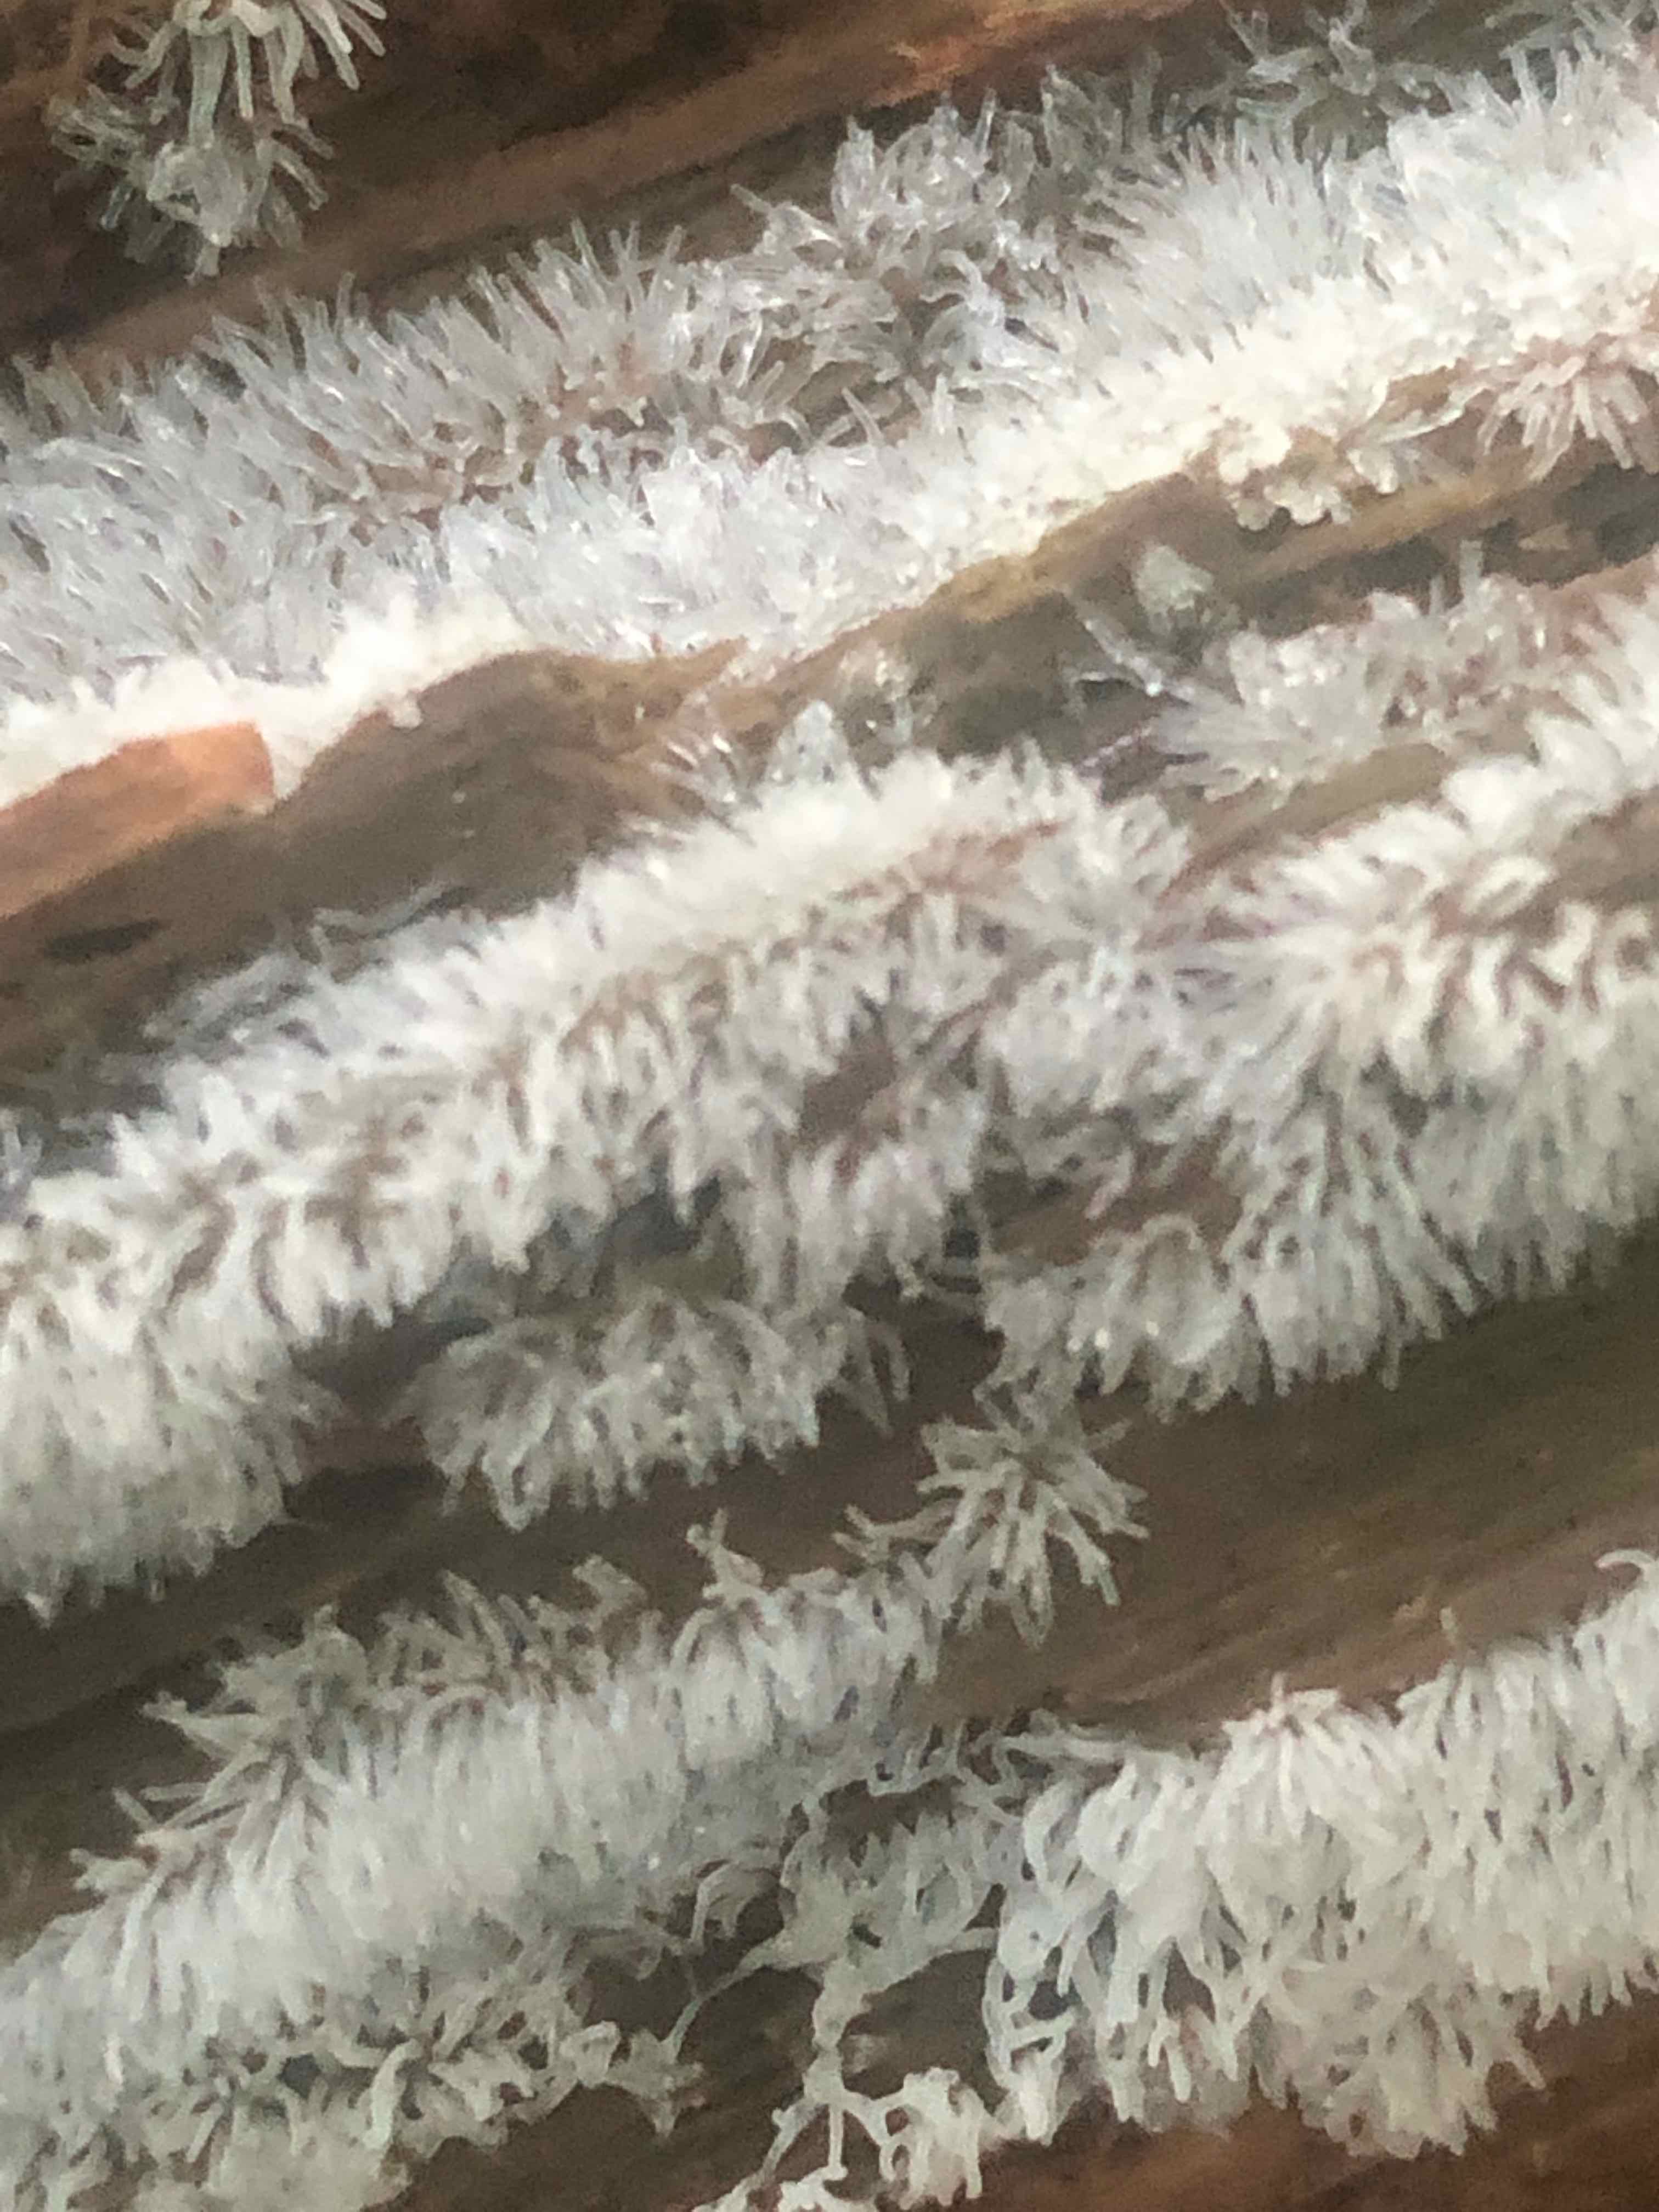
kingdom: Protozoa
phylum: Mycetozoa
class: Protosteliomycetes
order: Ceratiomyxales
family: Ceratiomyxaceae
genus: Ceratiomyxa
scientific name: Ceratiomyxa fruticulosa
